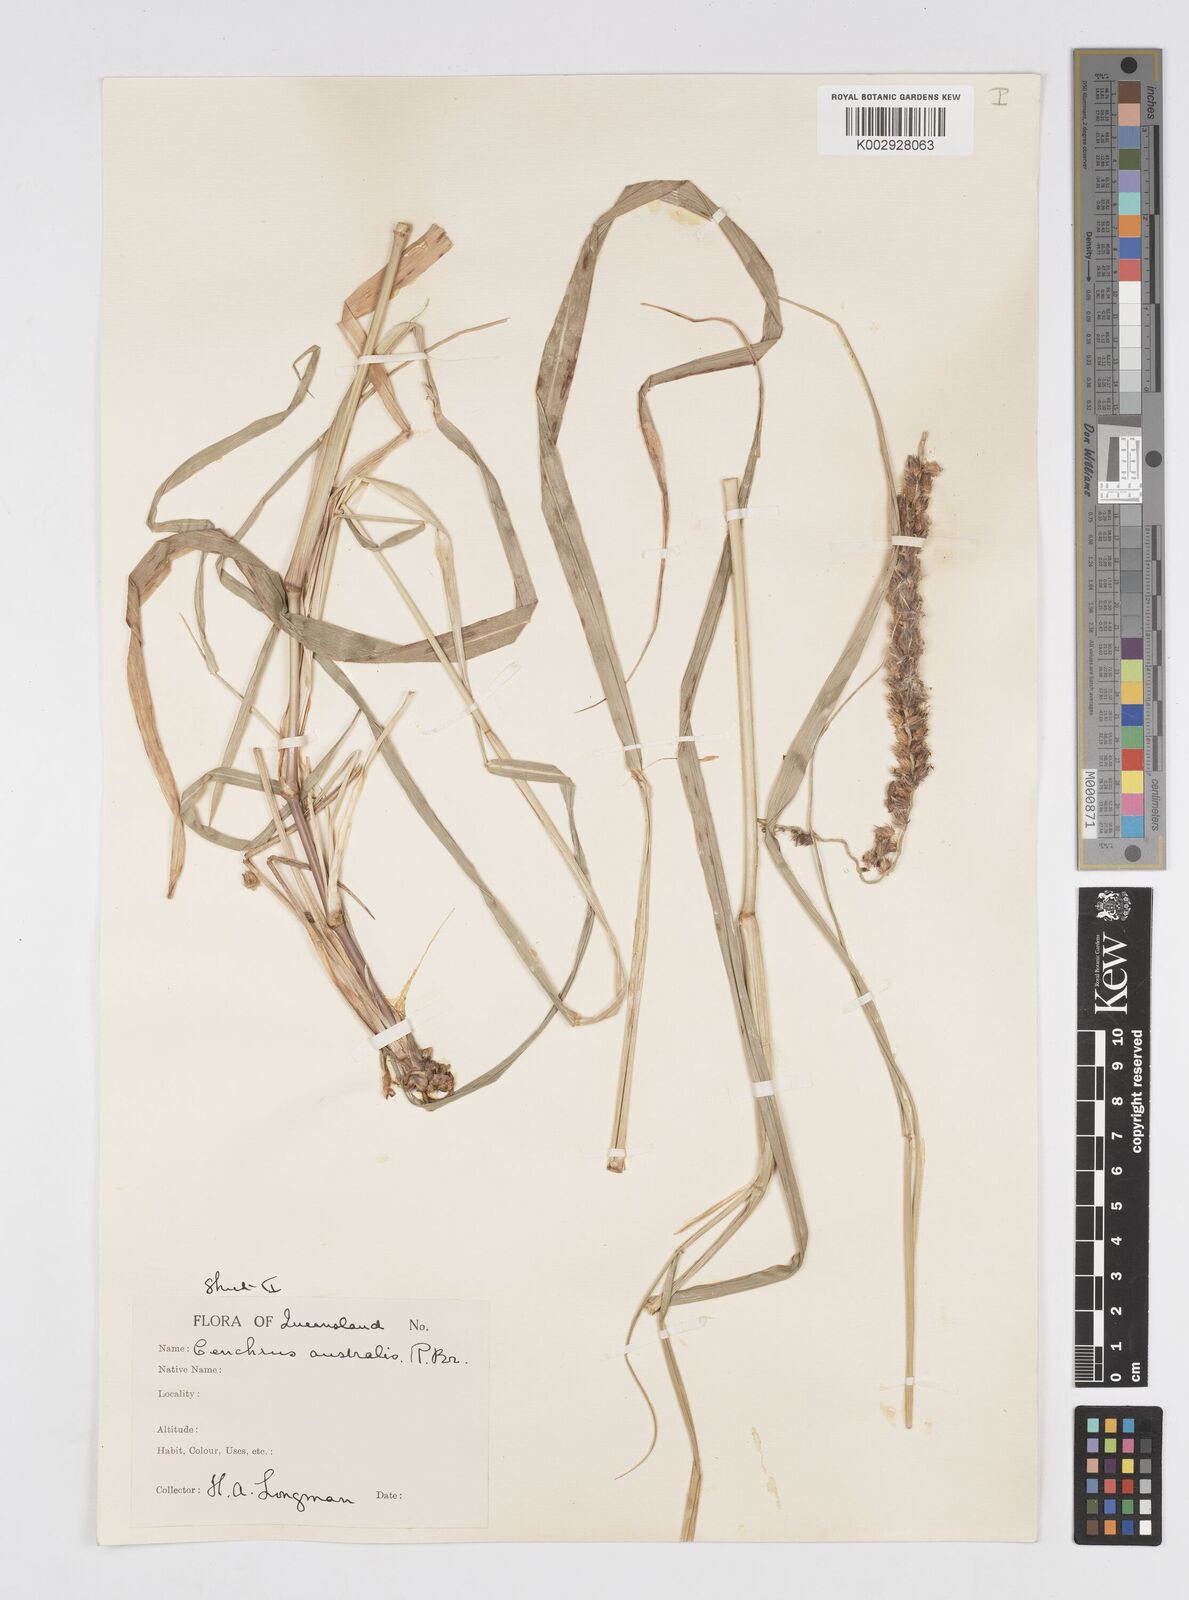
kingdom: Plantae
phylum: Tracheophyta
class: Liliopsida
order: Poales
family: Poaceae
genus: Cenchrus
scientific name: Cenchrus caliculatus
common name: Large bur grass
